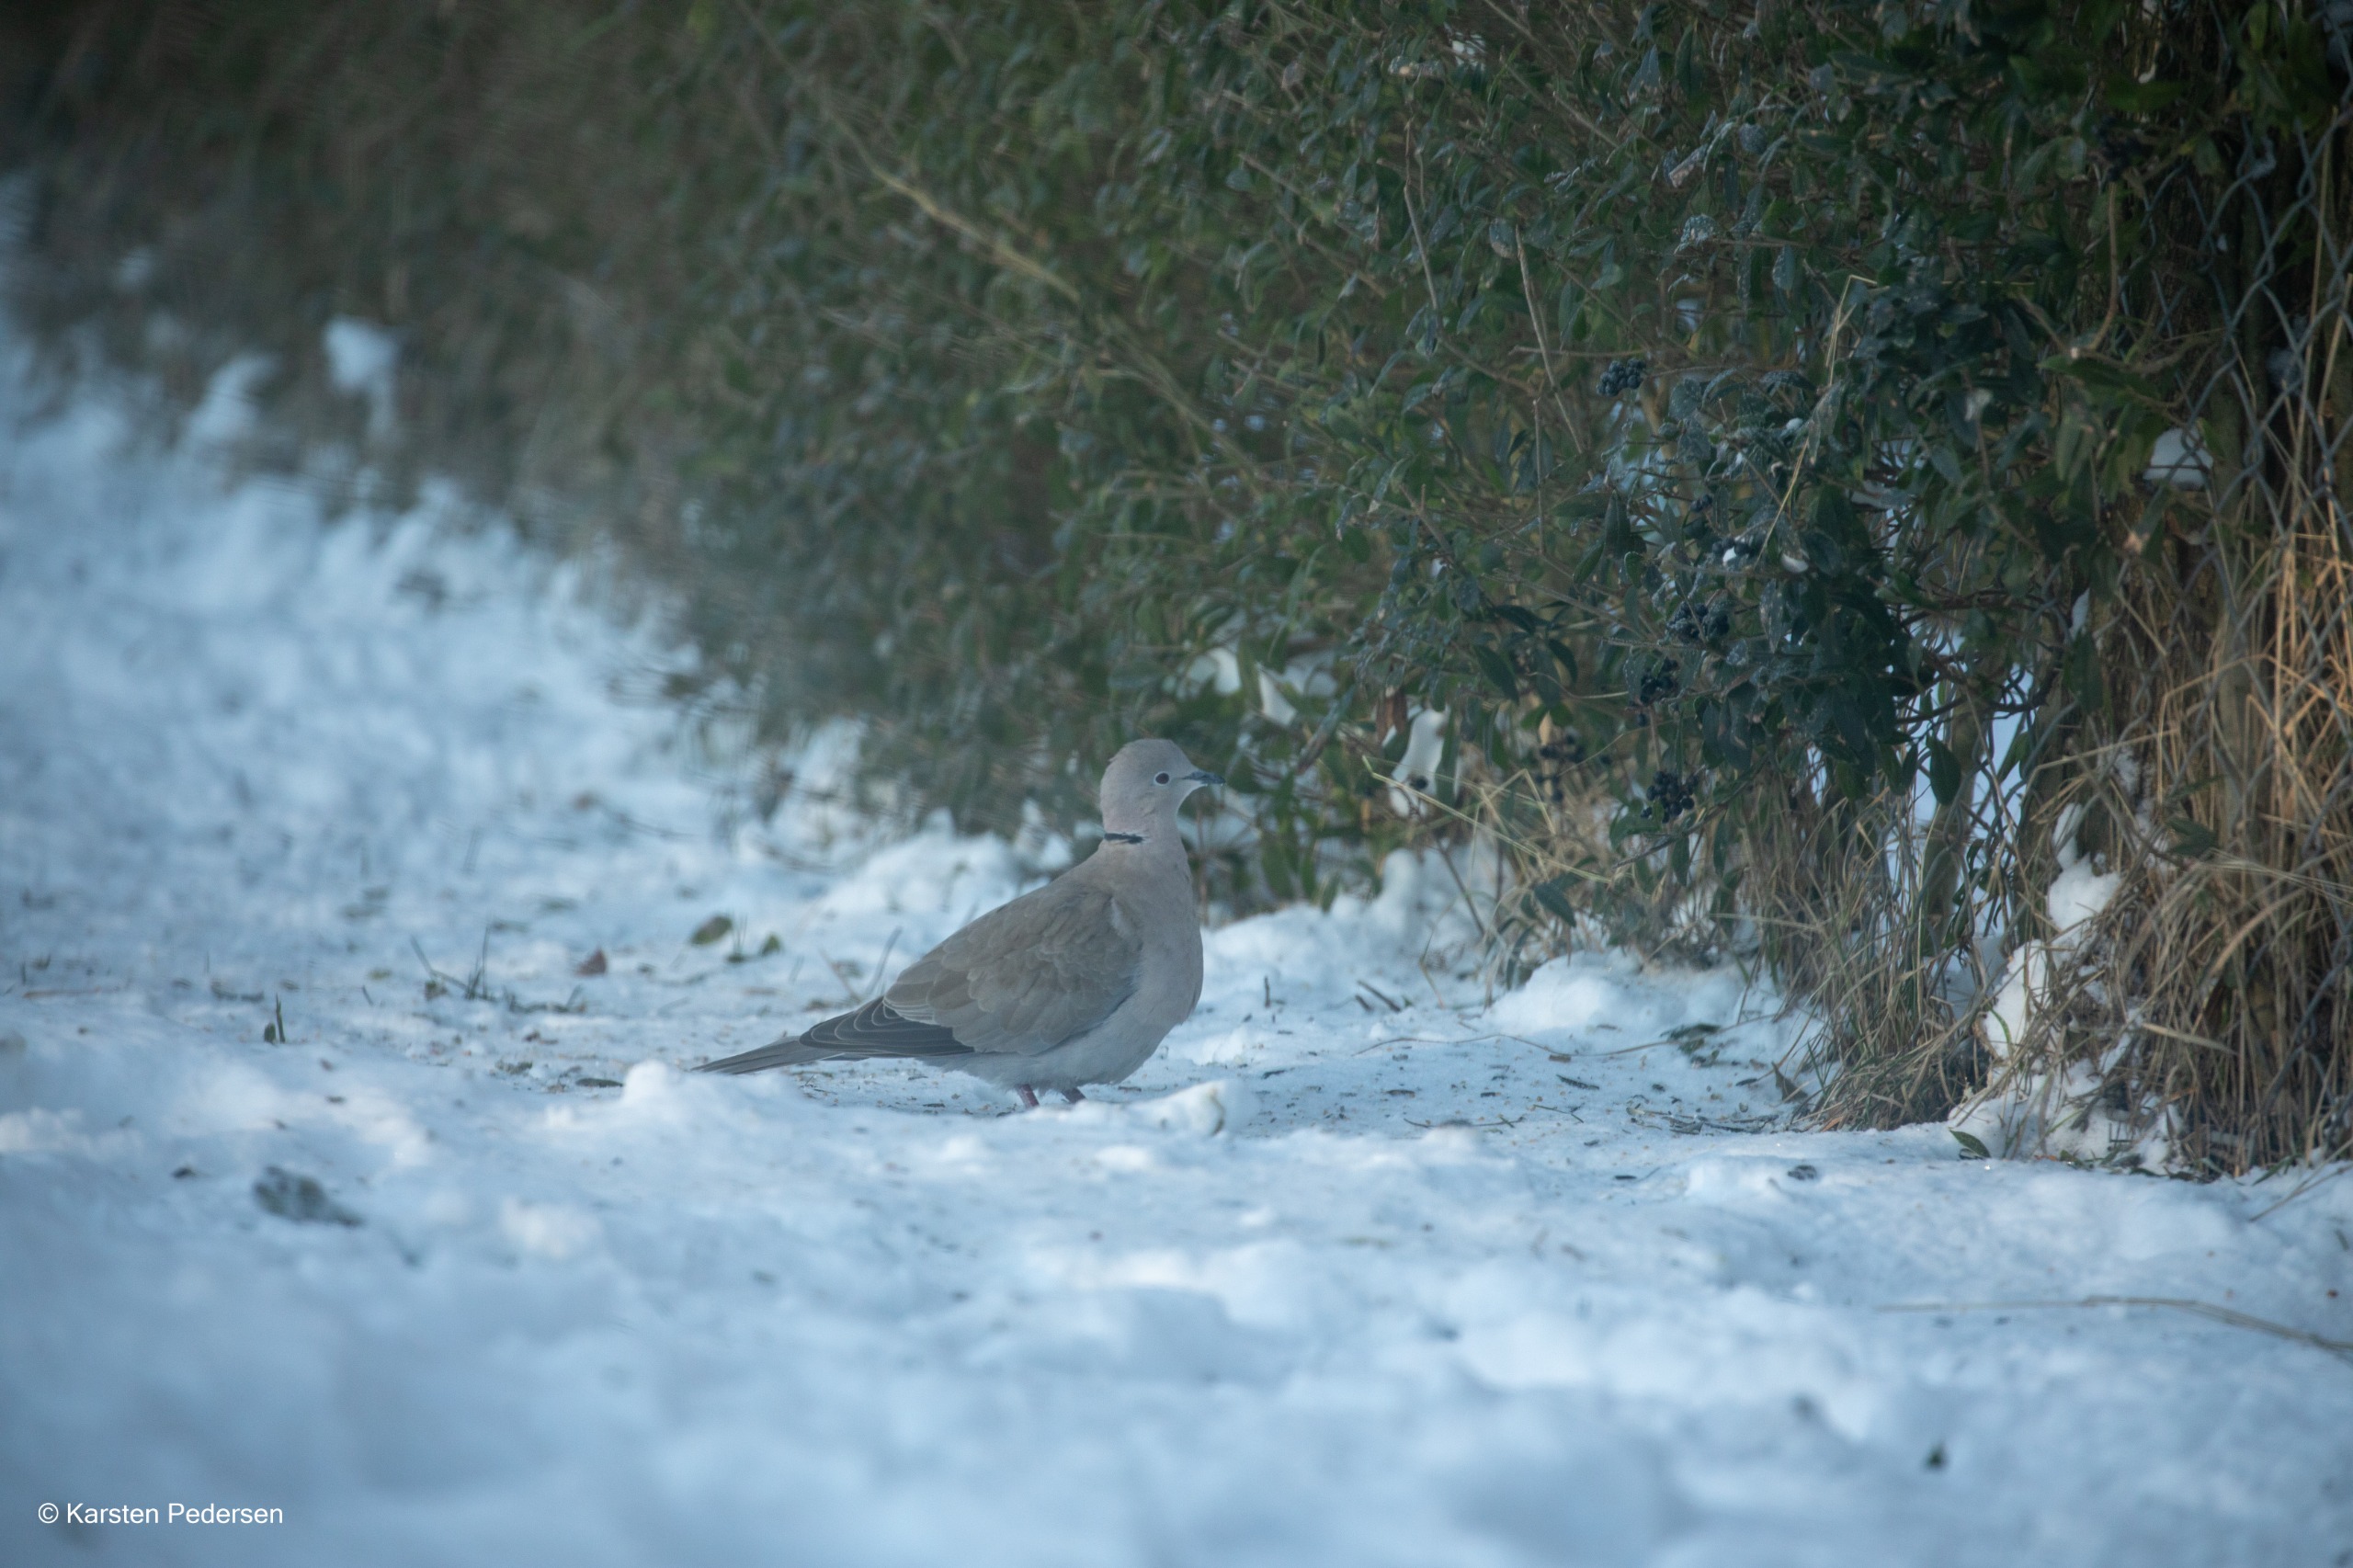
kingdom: Animalia
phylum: Chordata
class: Aves
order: Columbiformes
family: Columbidae
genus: Streptopelia
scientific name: Streptopelia decaocto
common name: Tyrkerdue
